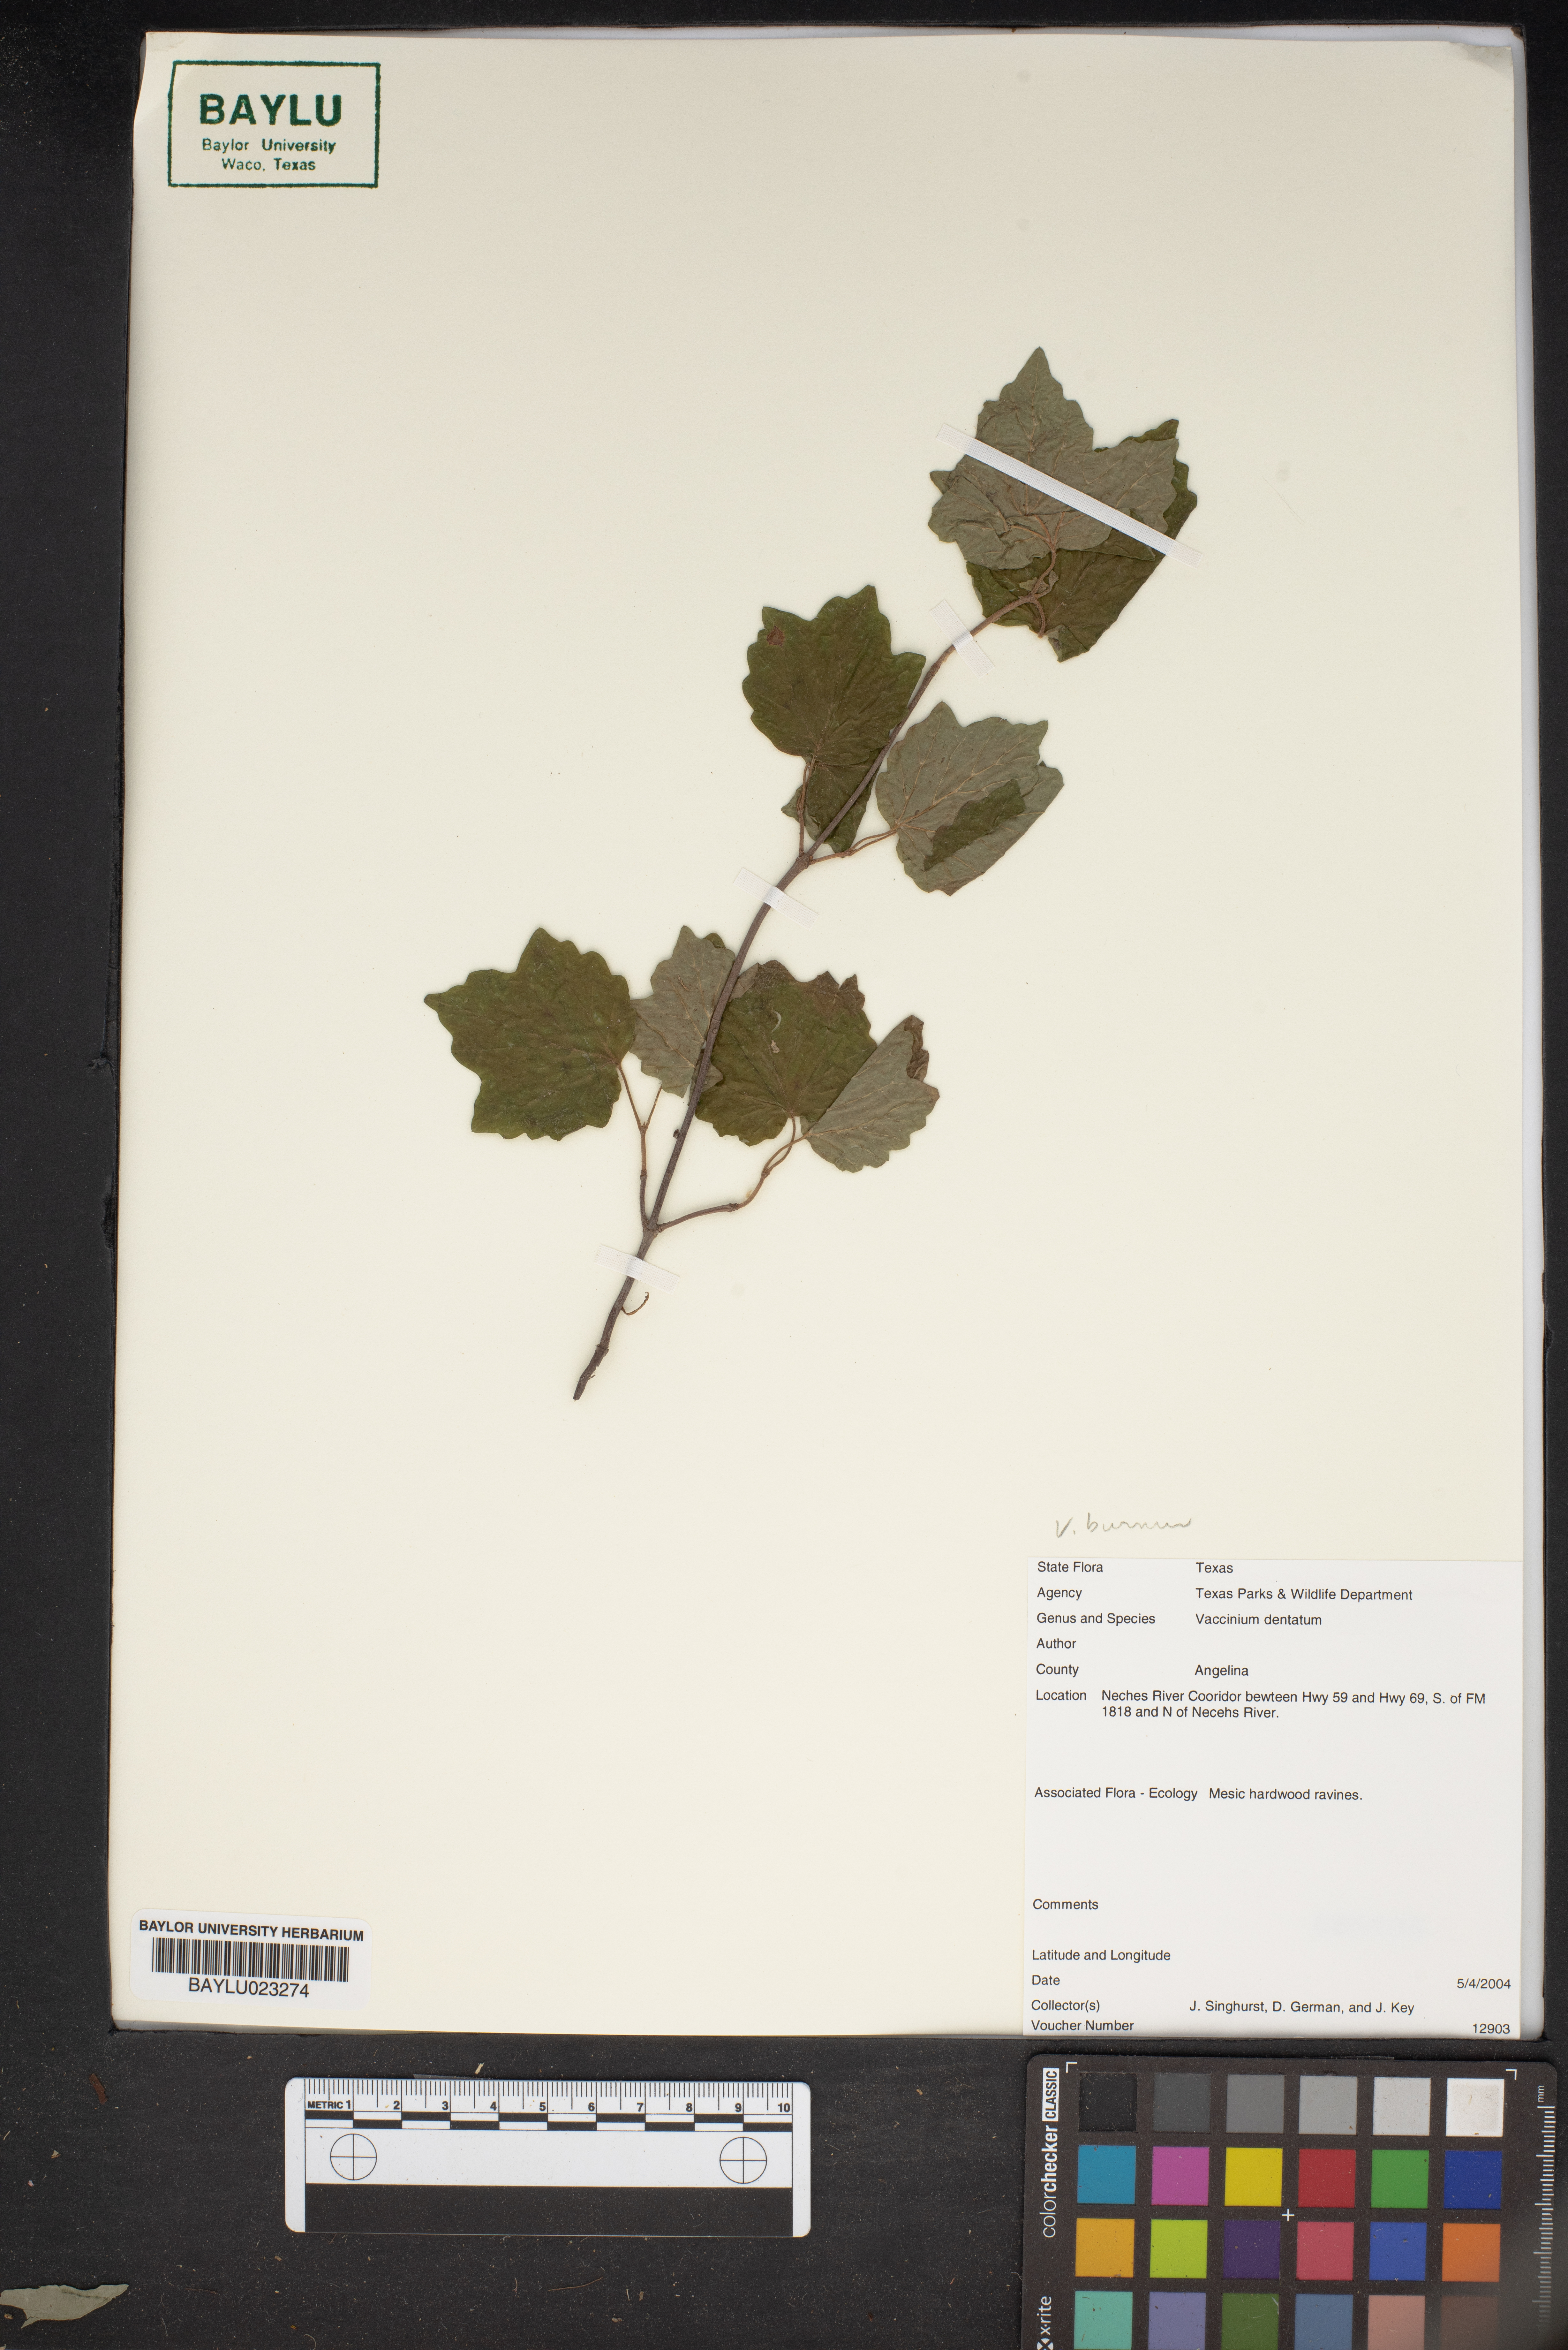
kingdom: Plantae
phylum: Tracheophyta
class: Magnoliopsida
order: Ericales
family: Ericaceae
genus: Vaccinium
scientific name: Vaccinium dentatum
